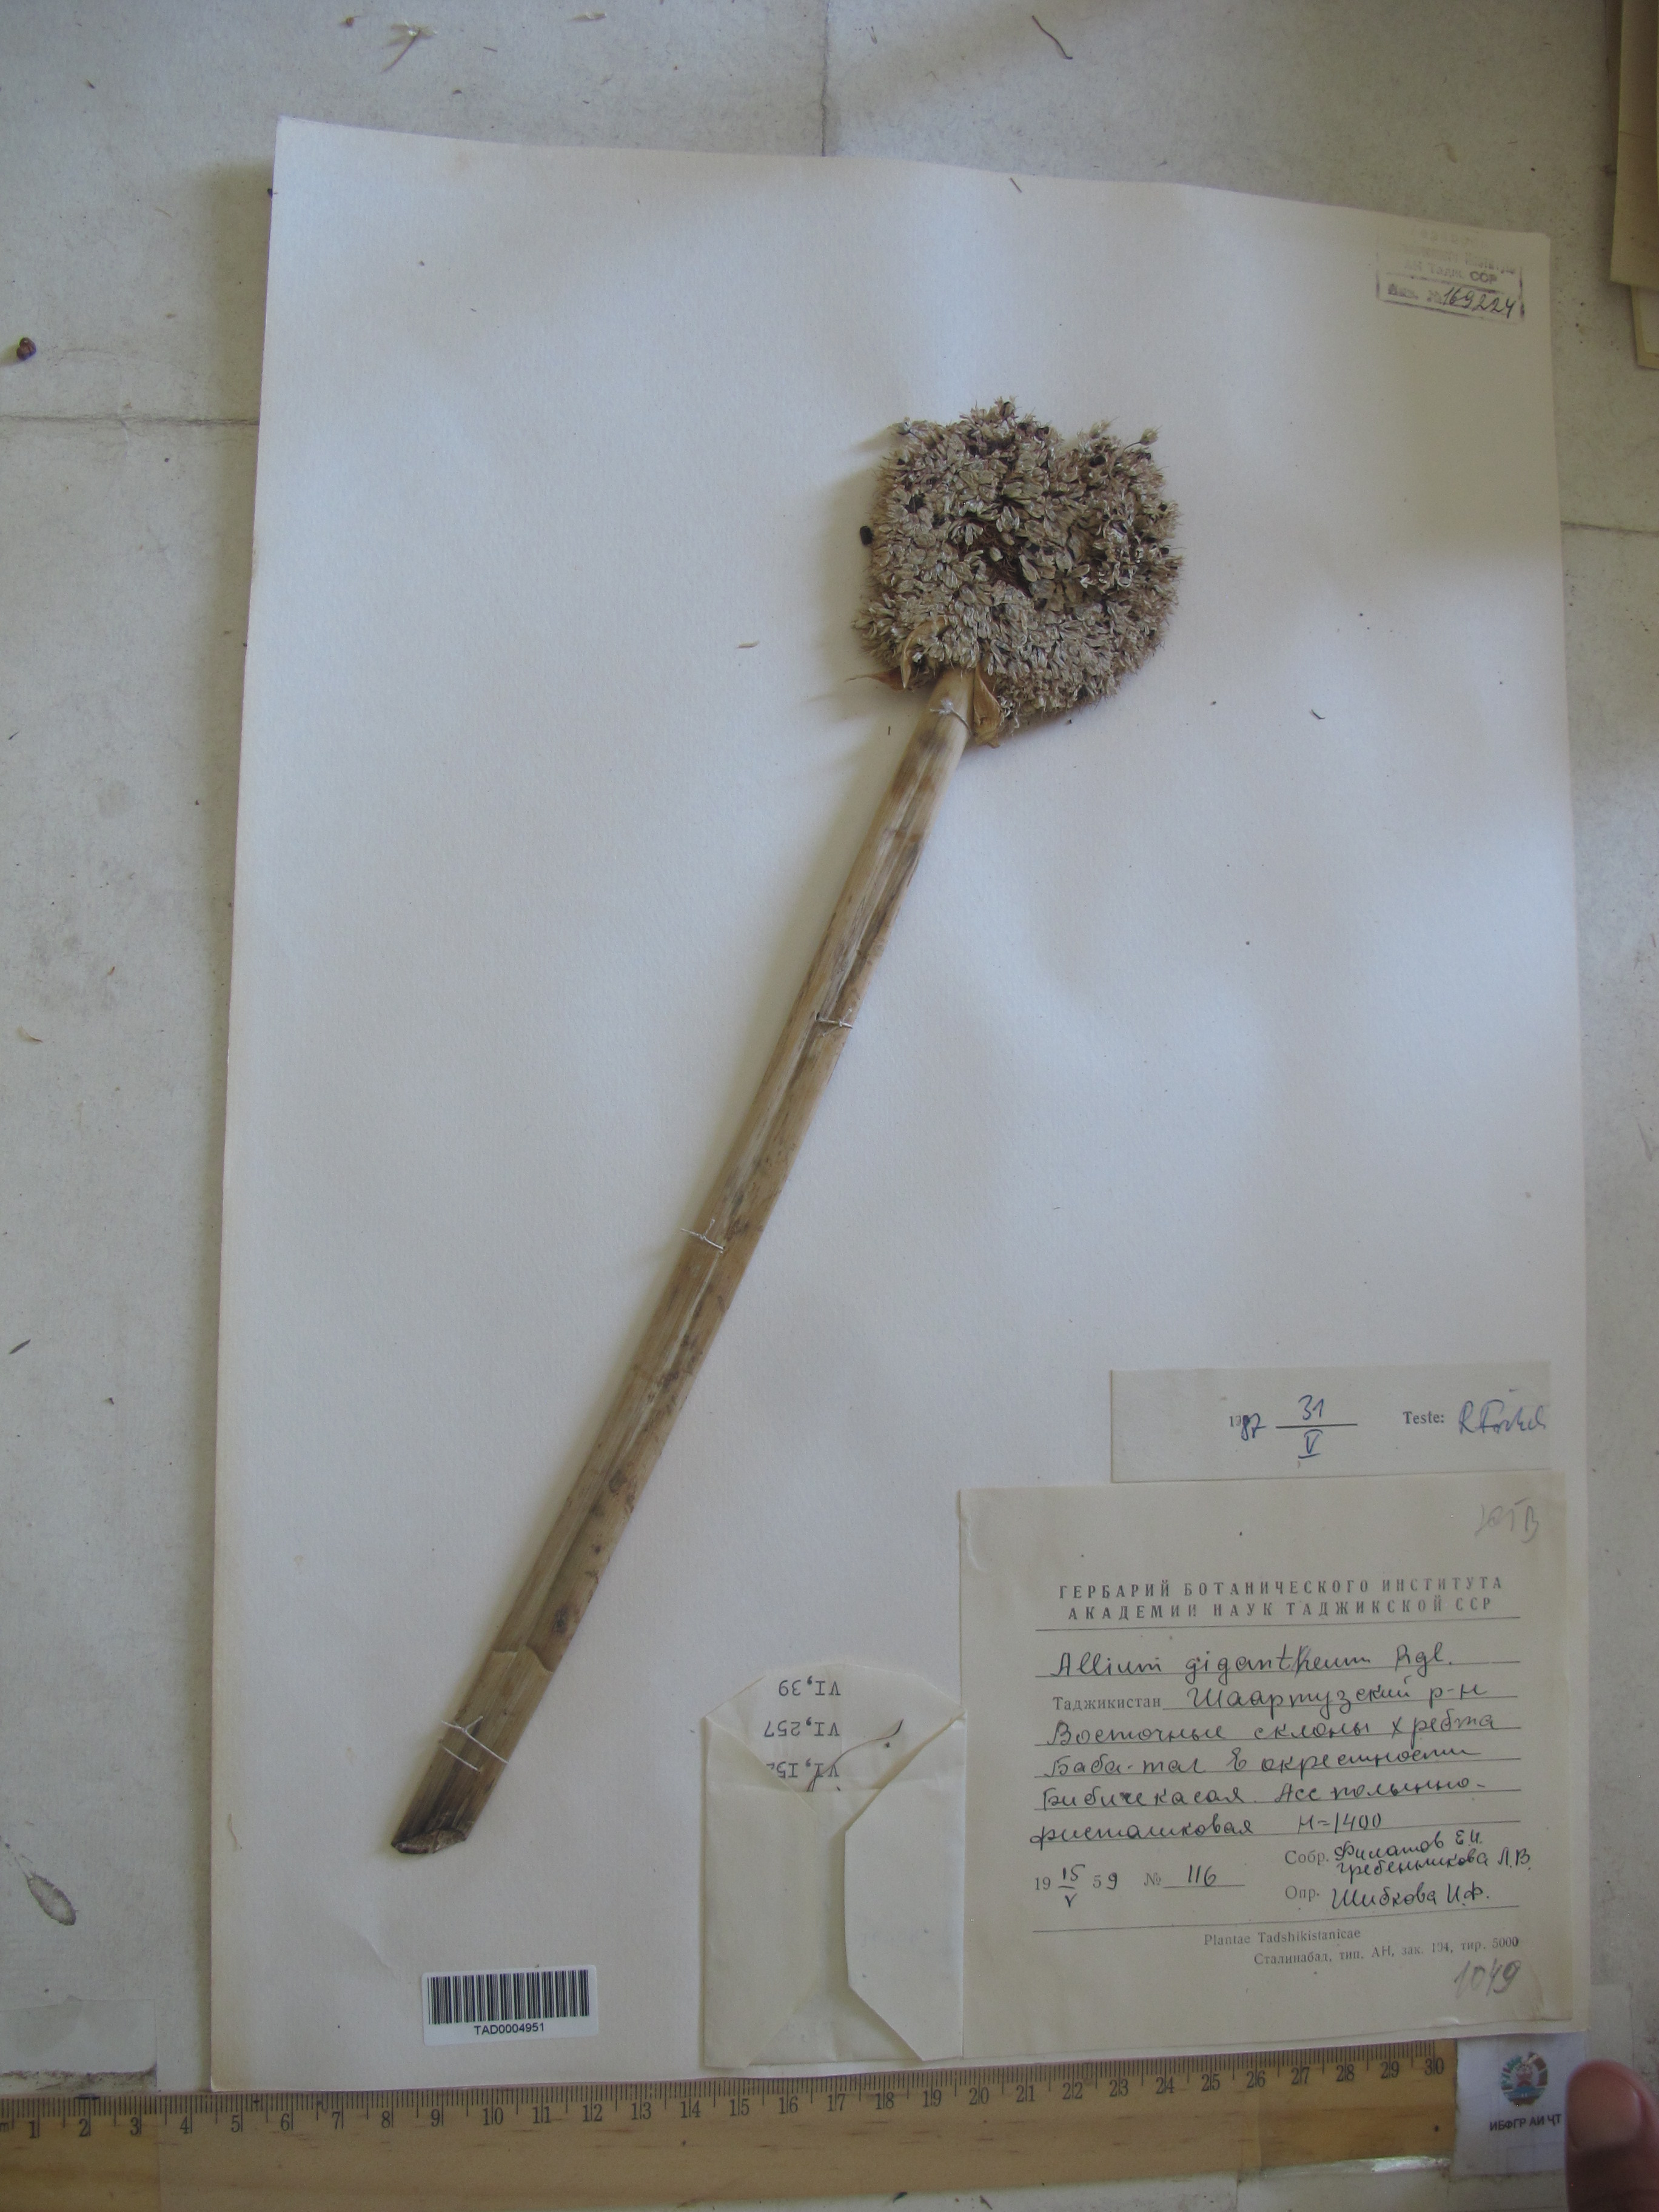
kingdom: Plantae
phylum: Tracheophyta
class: Liliopsida
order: Asparagales
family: Amaryllidaceae
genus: Allium
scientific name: Allium giganteum
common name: Giant onion
